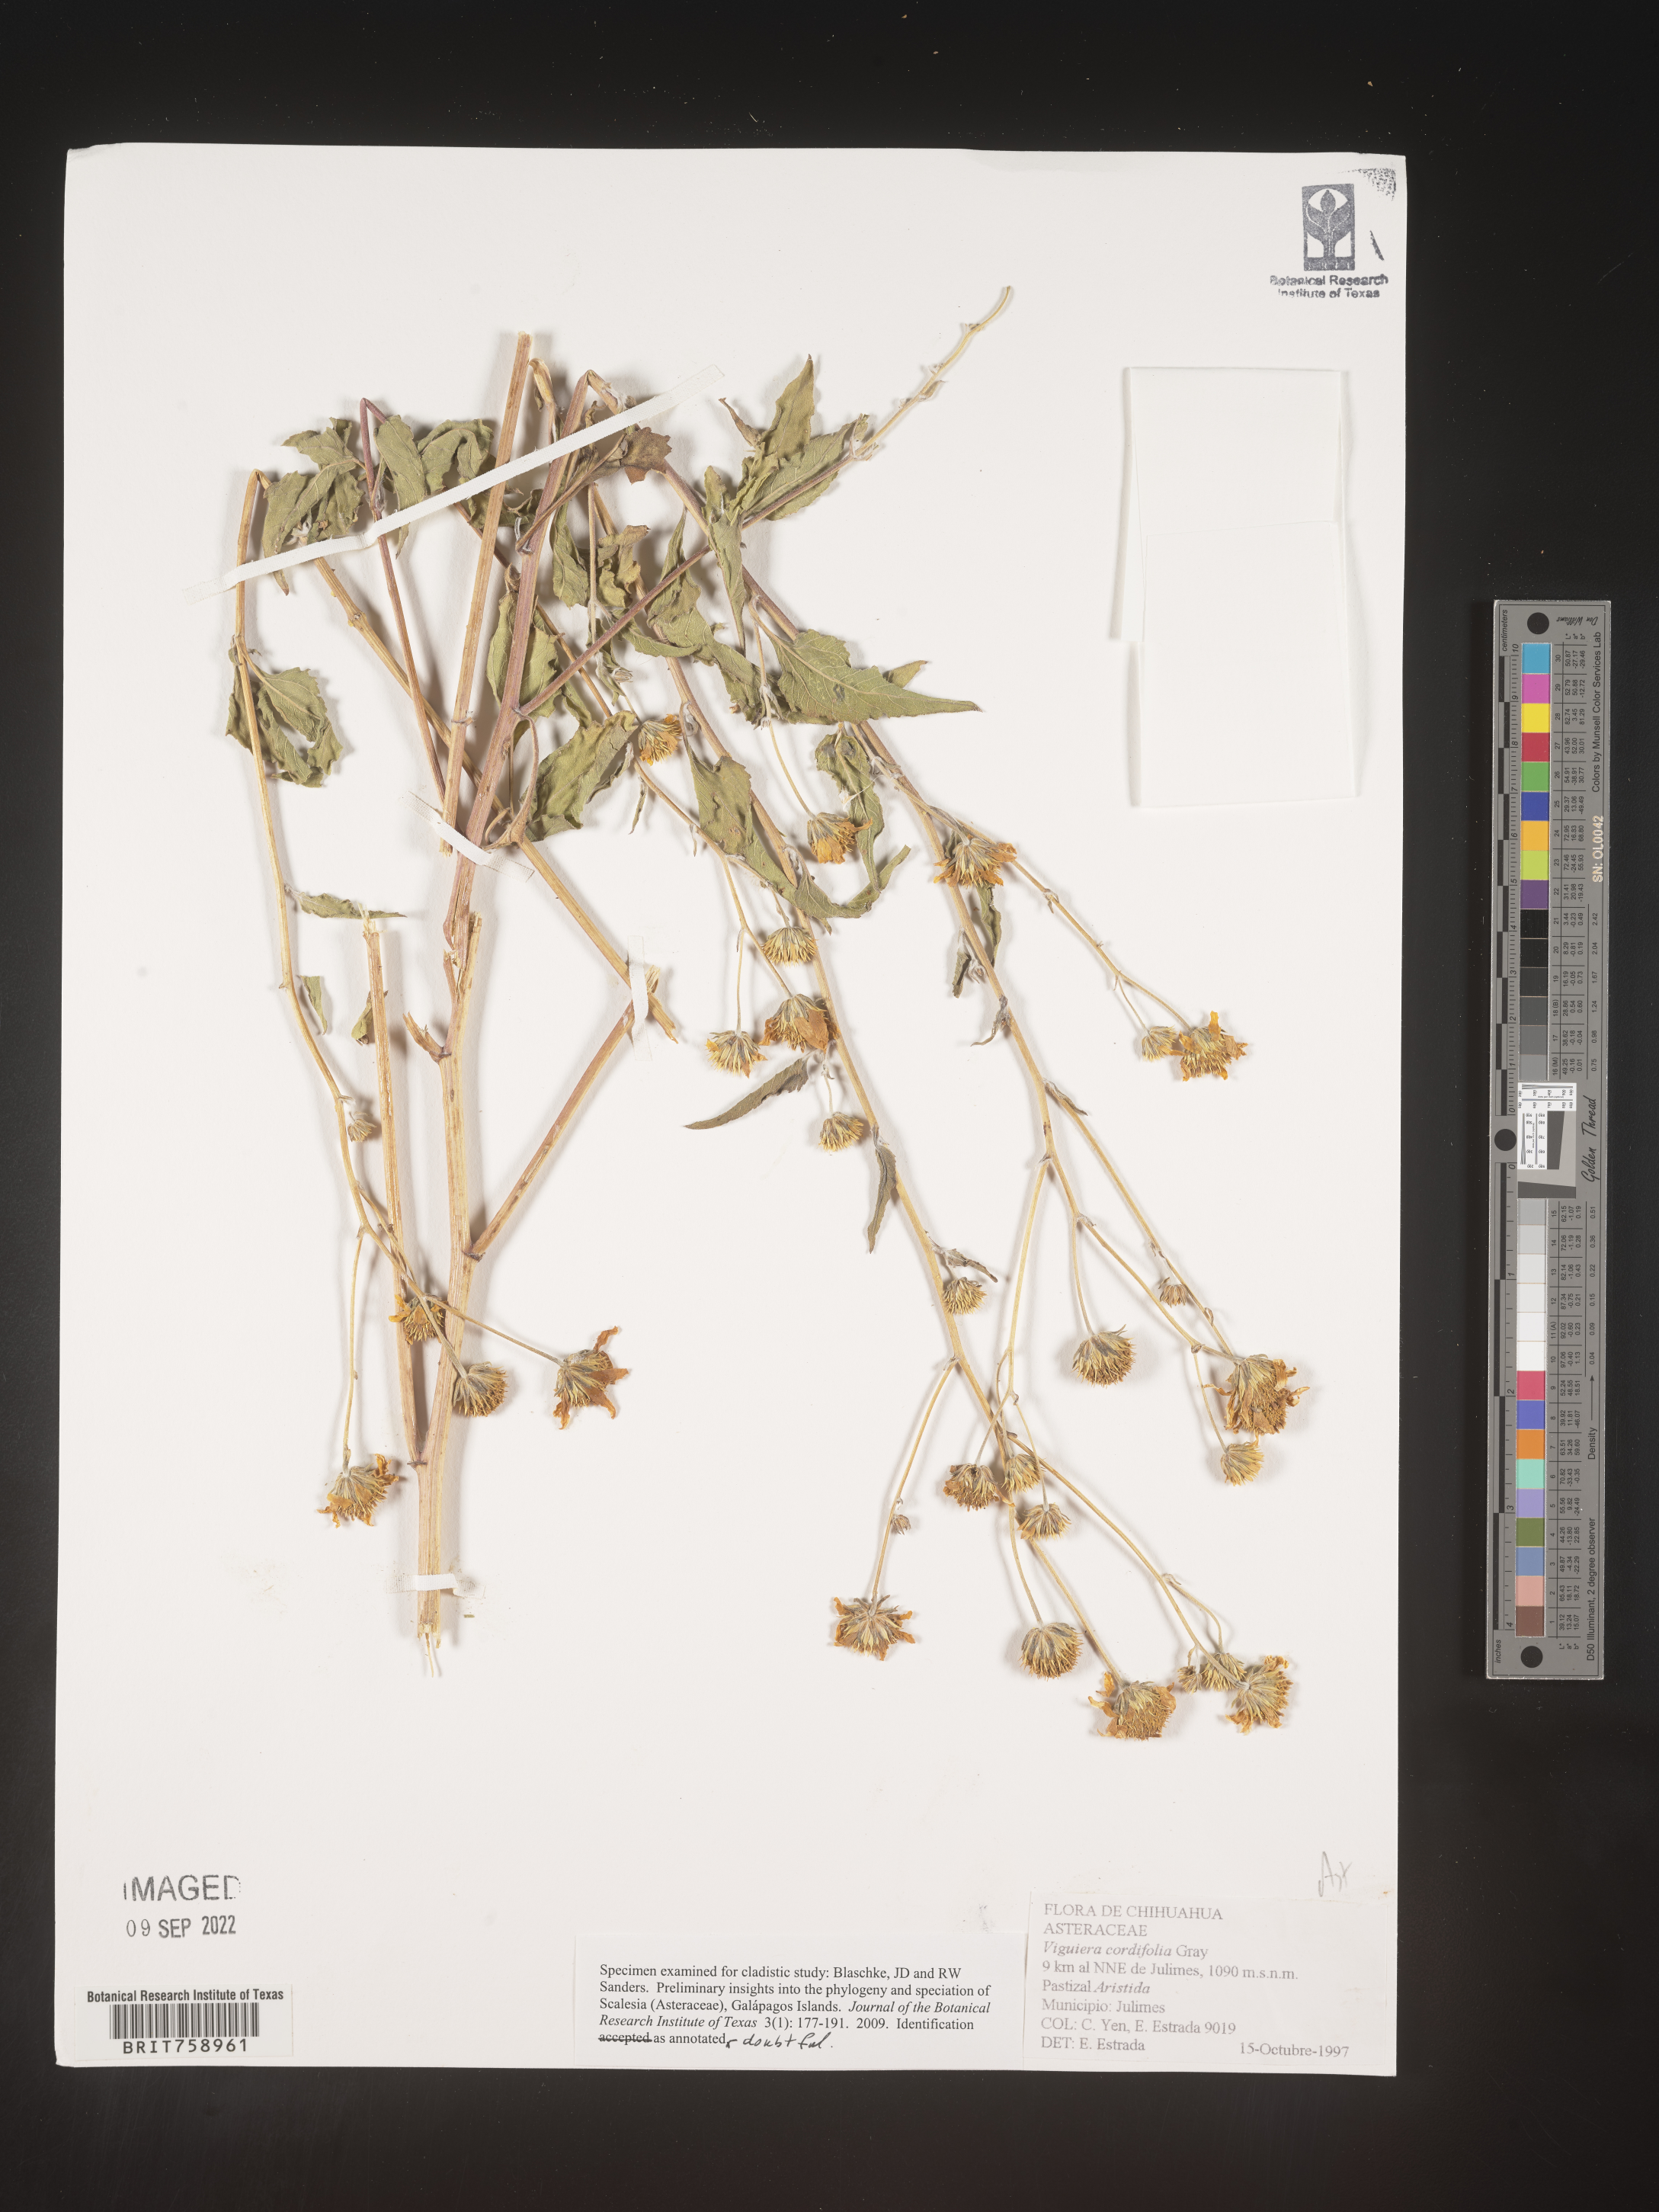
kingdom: Plantae
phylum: Tracheophyta
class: Magnoliopsida
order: Asterales
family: Asteraceae
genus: Viguiera
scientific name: Viguiera
